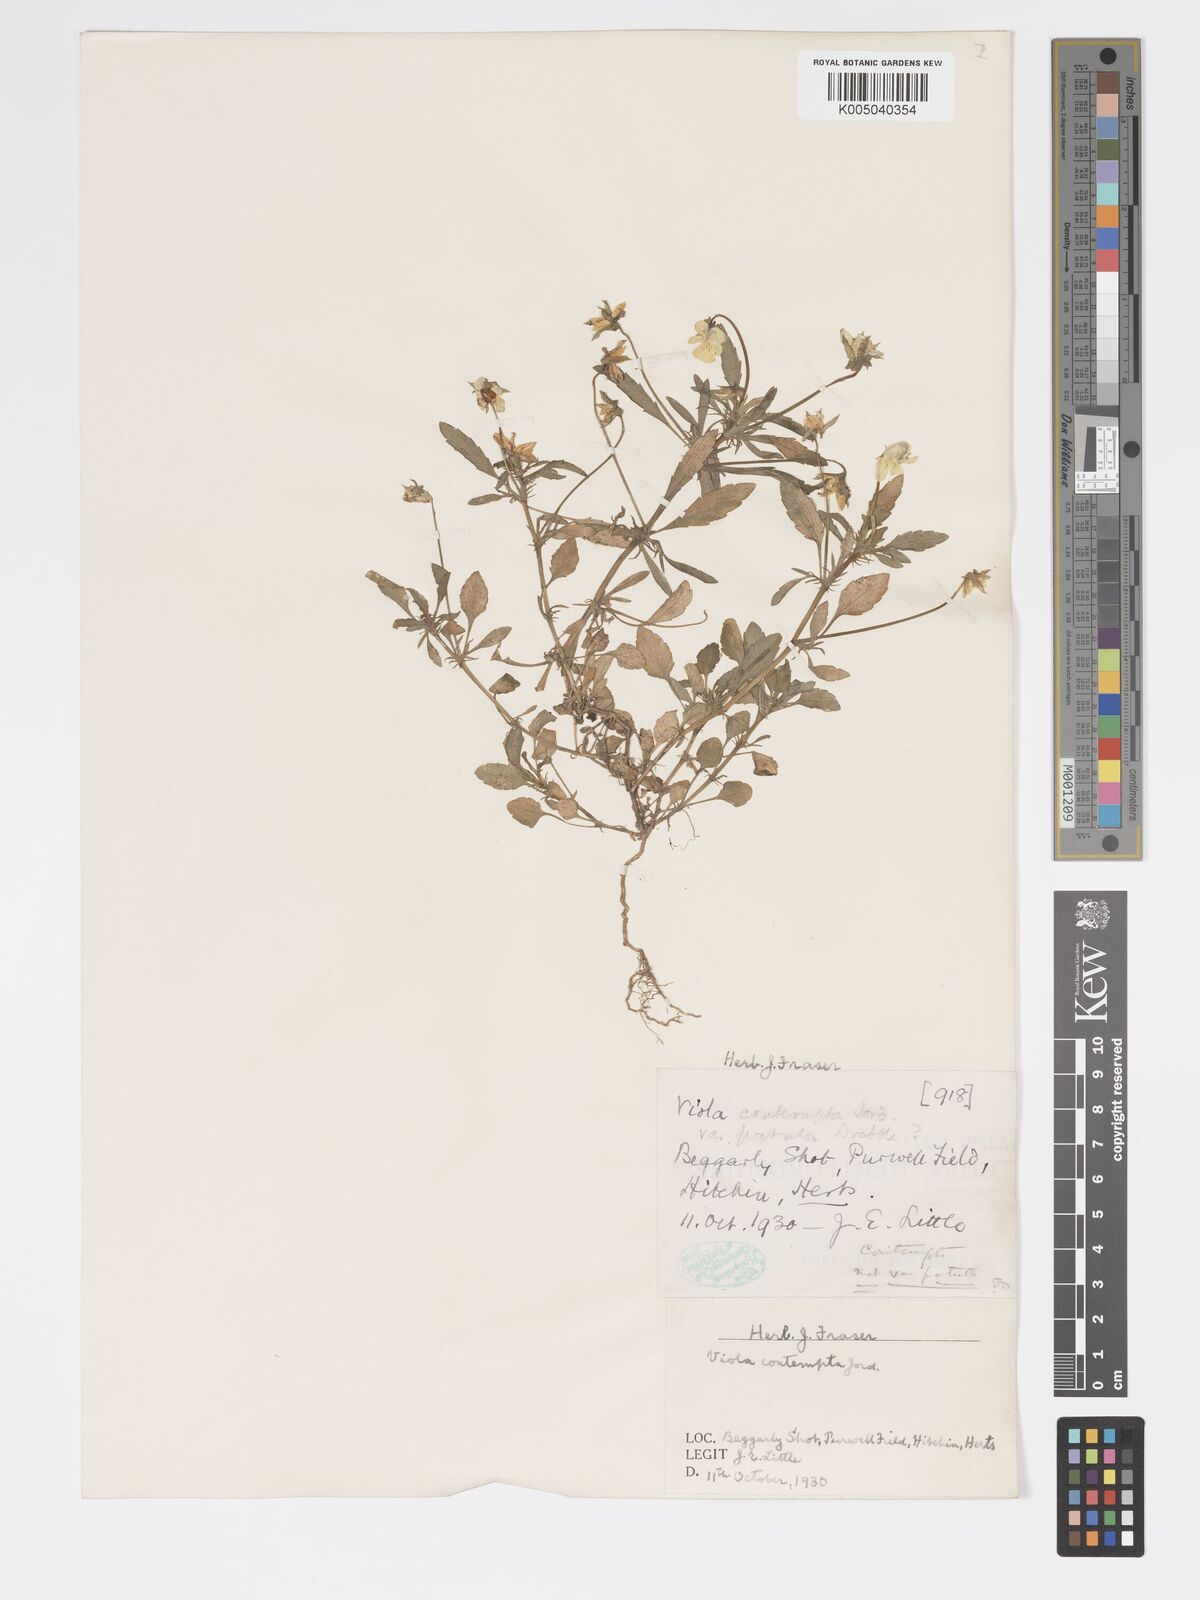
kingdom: Plantae
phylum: Tracheophyta
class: Magnoliopsida
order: Malpighiales
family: Violaceae
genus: Viola
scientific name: Viola arvensis
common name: Field pansy
